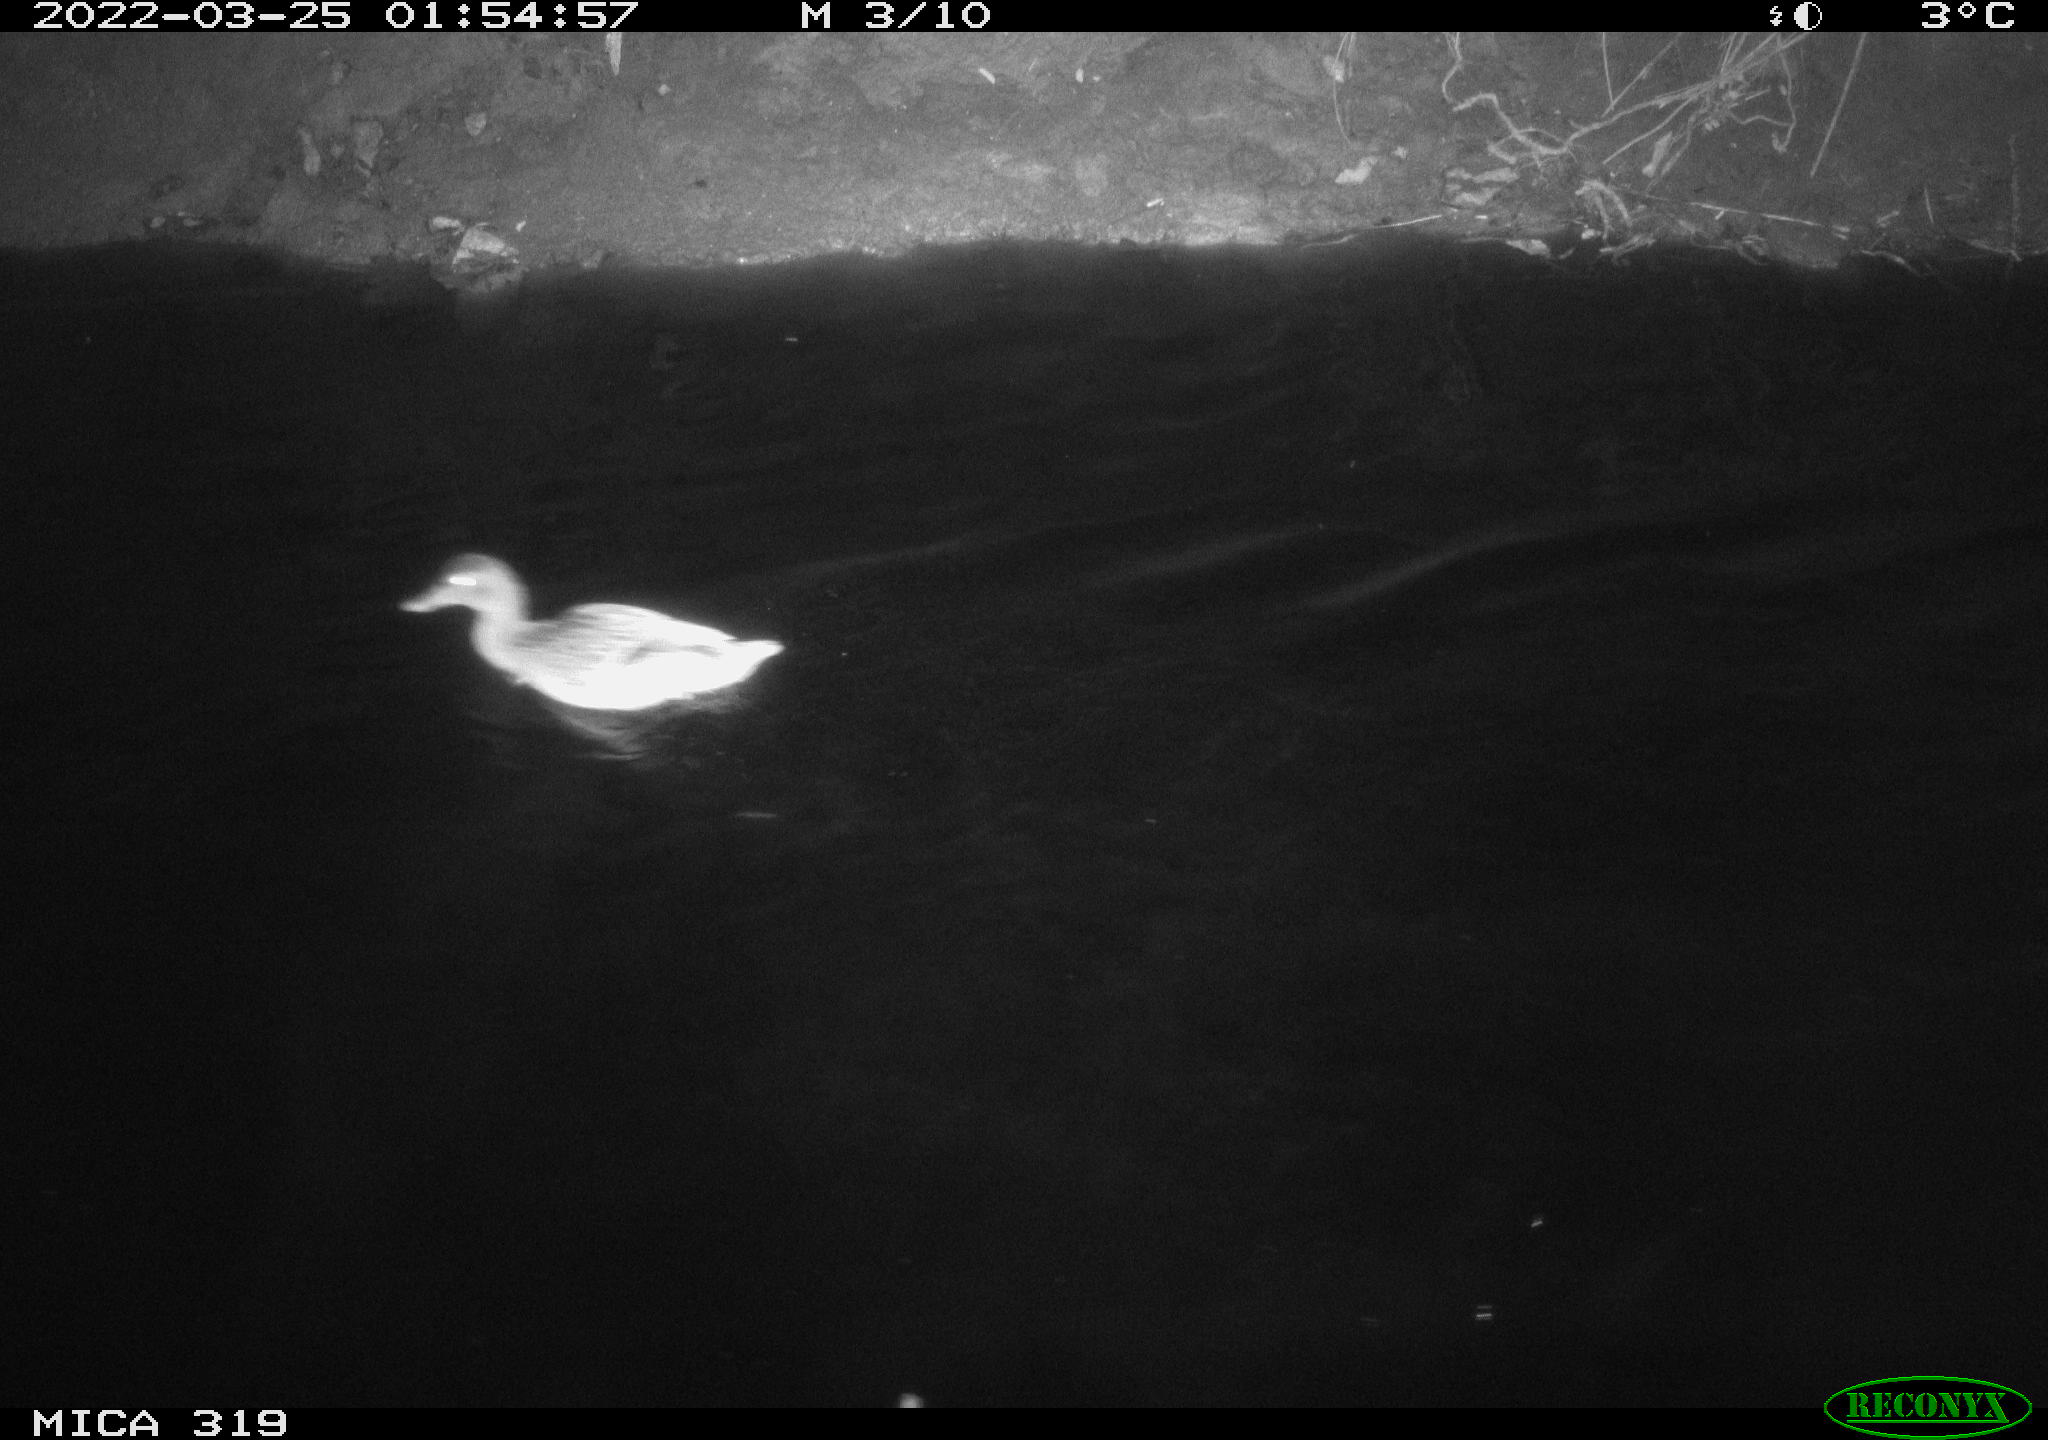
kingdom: Animalia
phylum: Chordata
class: Aves
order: Anseriformes
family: Anatidae
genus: Anas
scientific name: Anas platyrhynchos
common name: Mallard
